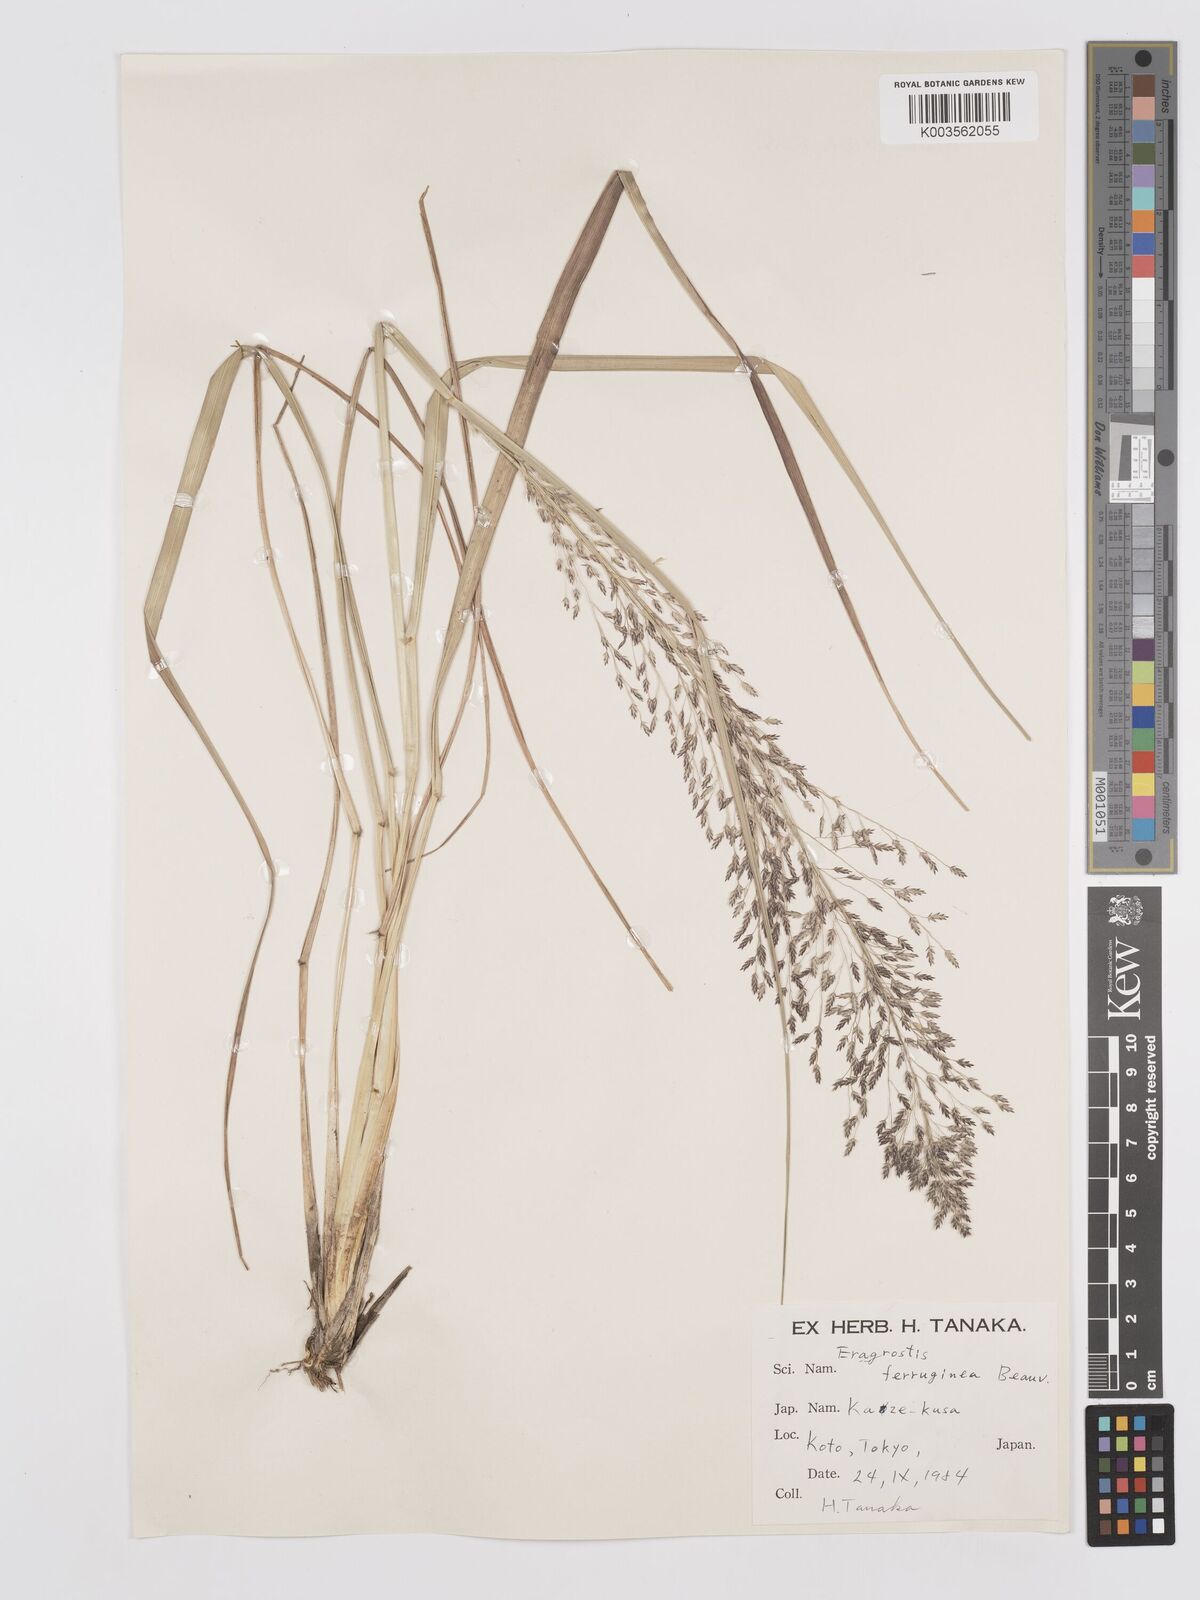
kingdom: Plantae
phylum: Tracheophyta
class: Liliopsida
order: Poales
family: Poaceae
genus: Eragrostis
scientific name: Eragrostis ferruginea
